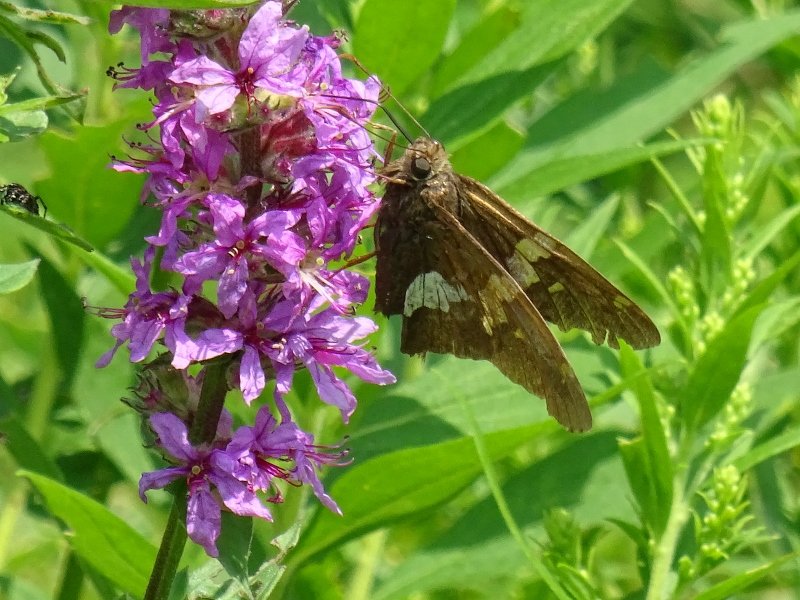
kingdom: Animalia
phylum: Arthropoda
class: Insecta
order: Lepidoptera
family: Hesperiidae
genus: Epargyreus
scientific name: Epargyreus clarus
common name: Silver-spotted Skipper
